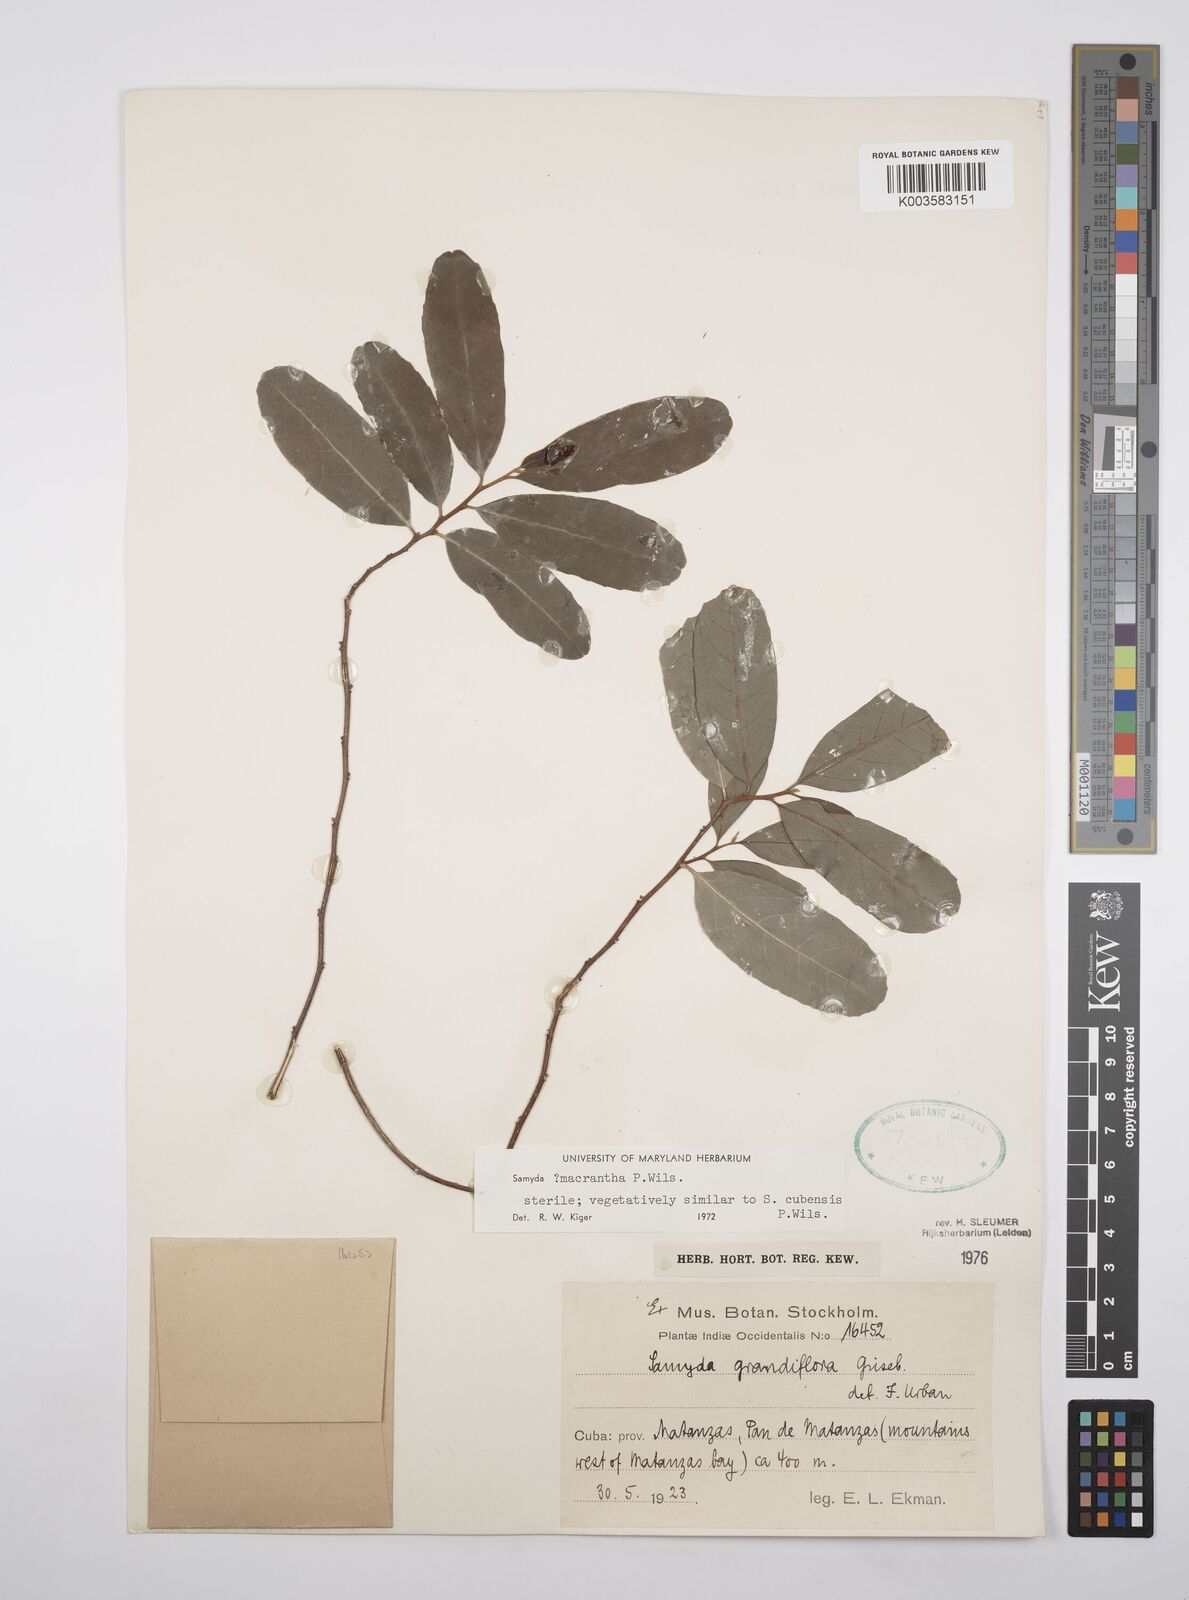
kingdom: Plantae
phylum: Tracheophyta
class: Magnoliopsida
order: Malpighiales
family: Salicaceae
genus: Casearia
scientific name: Casearia dolichanthera
